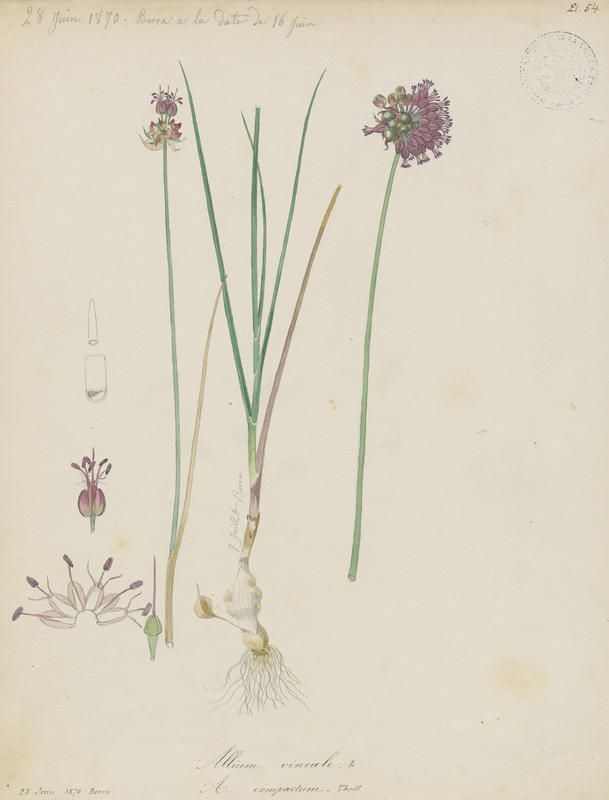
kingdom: Plantae
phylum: Tracheophyta
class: Liliopsida
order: Asparagales
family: Amaryllidaceae
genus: Allium
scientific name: Allium vineale
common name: Crow garlic
